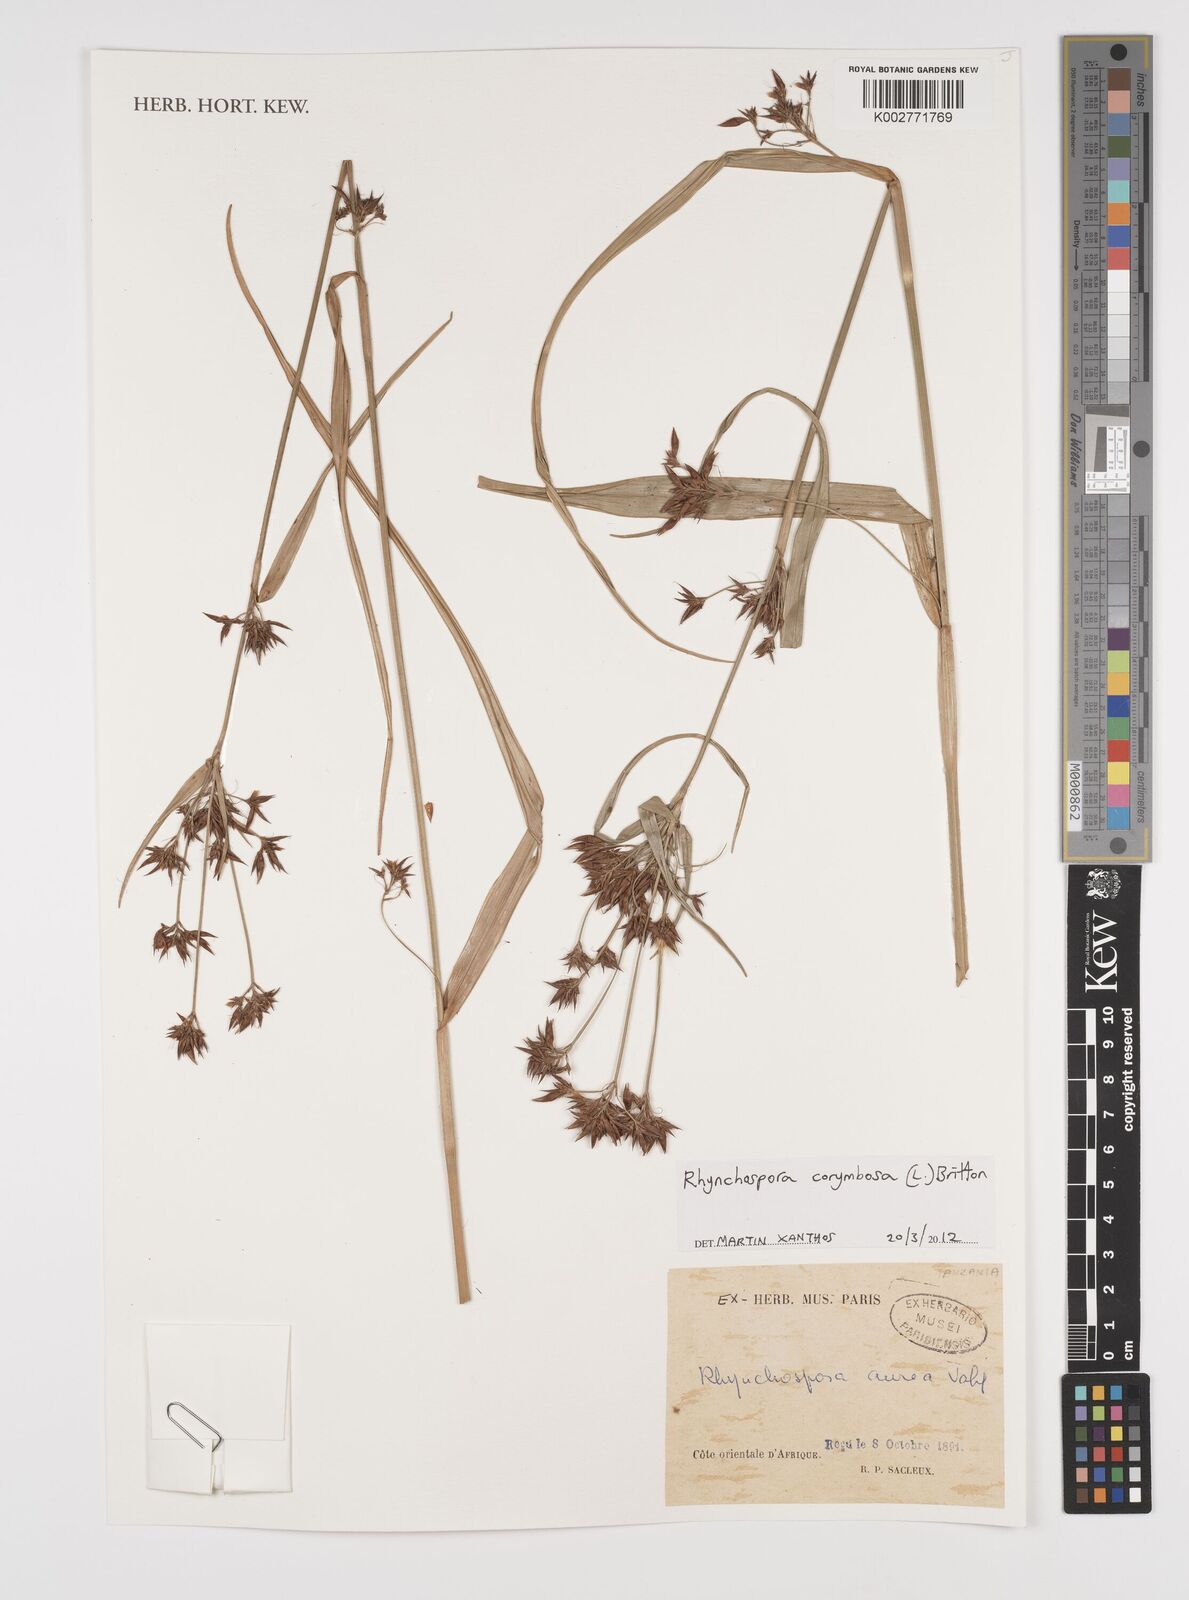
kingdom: Plantae
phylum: Tracheophyta
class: Liliopsida
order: Poales
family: Cyperaceae
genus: Rhynchospora
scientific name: Rhynchospora corymbosa
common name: Golden beak sedge
